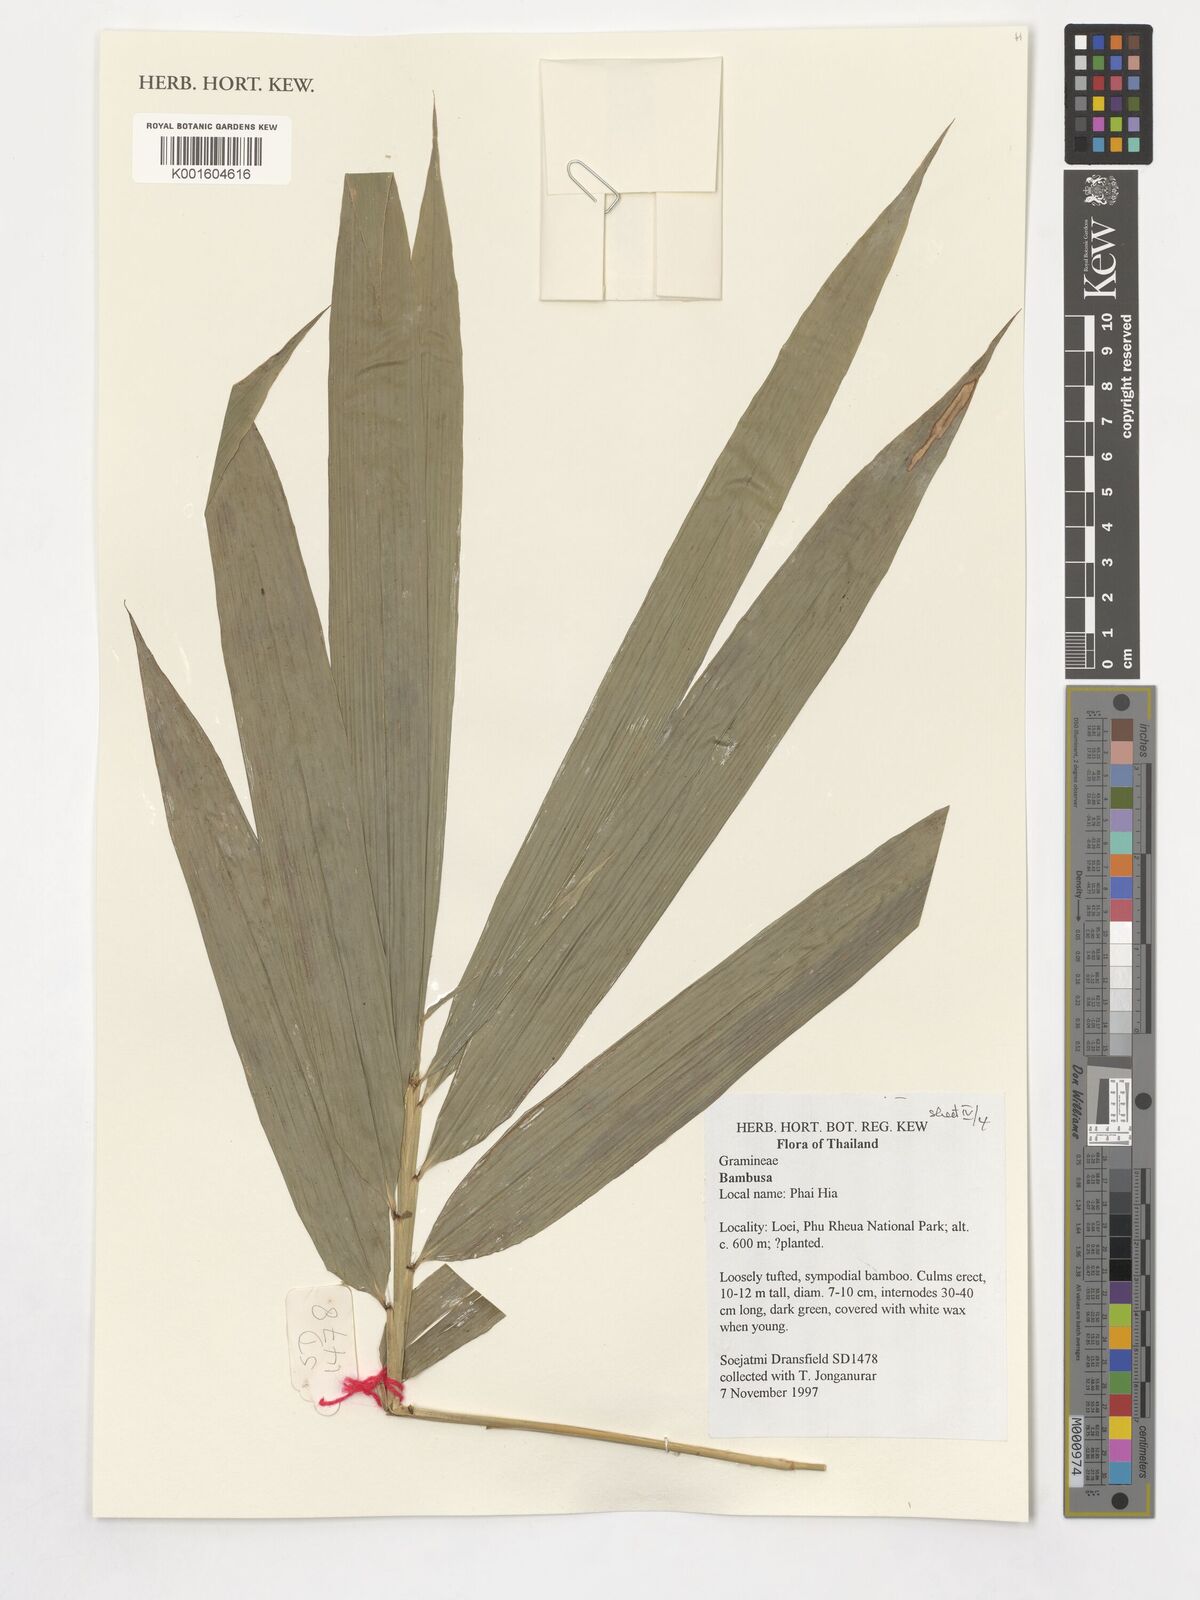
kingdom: Plantae
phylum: Tracheophyta
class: Liliopsida
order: Poales
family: Poaceae
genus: Guadua
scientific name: Guadua
